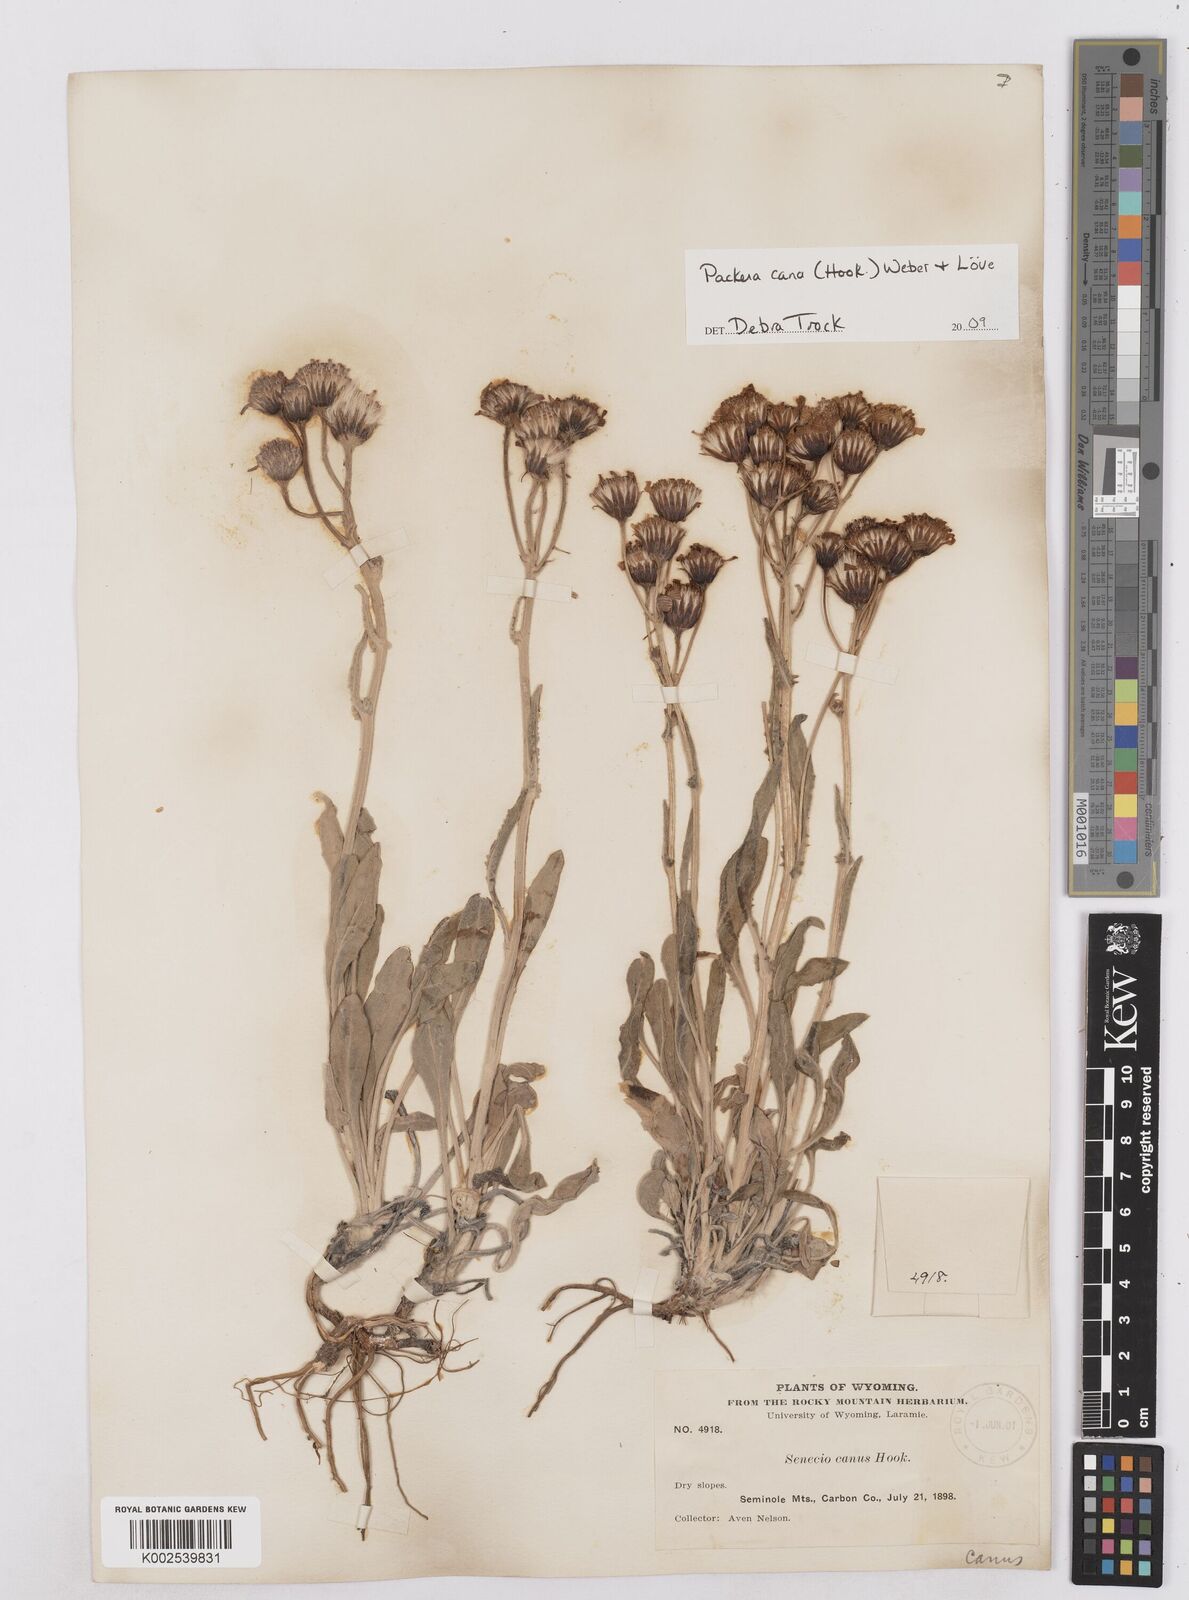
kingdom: Plantae
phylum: Tracheophyta
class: Magnoliopsida
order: Asterales
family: Asteraceae
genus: Packera
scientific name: Packera cana
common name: Woolly groundsel
